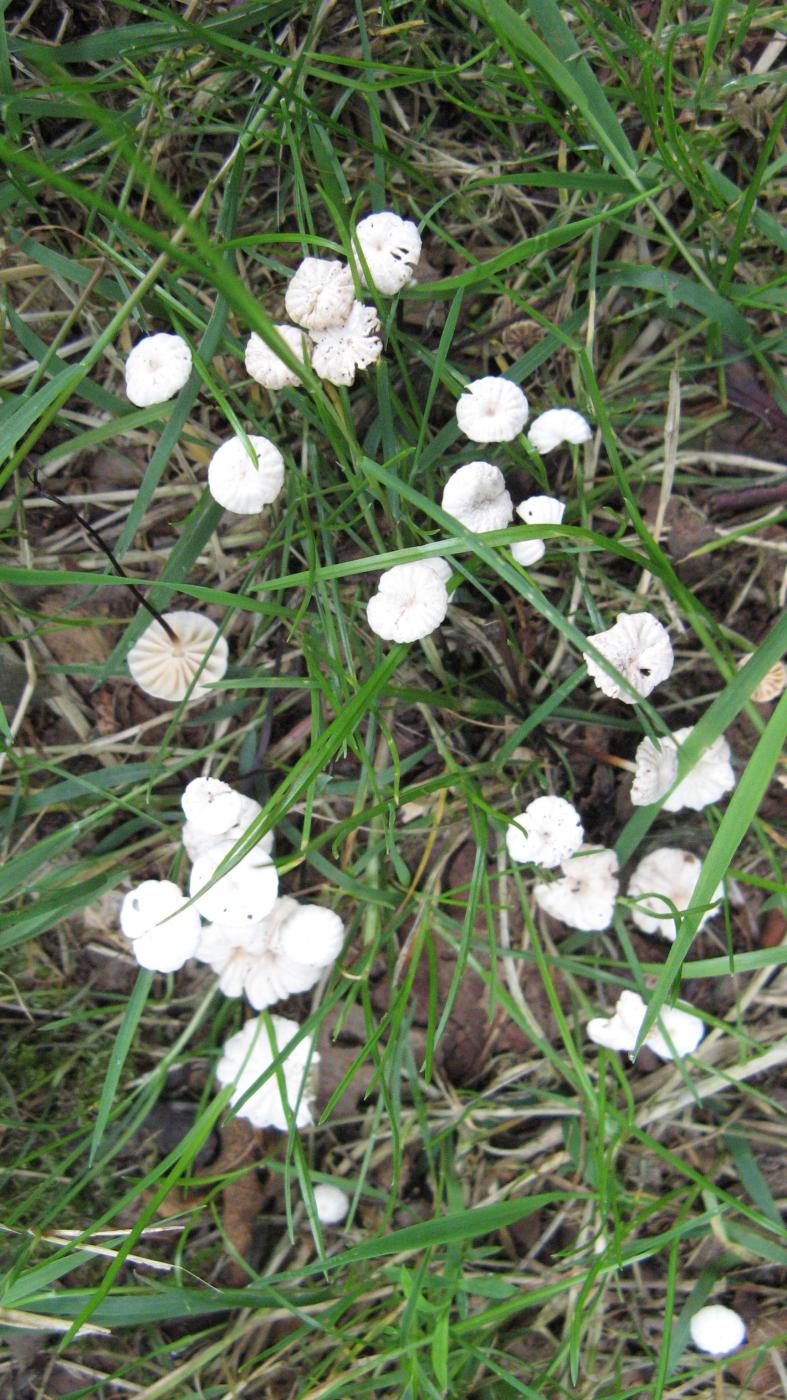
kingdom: Fungi
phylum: Basidiomycota
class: Agaricomycetes
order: Agaricales
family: Marasmiaceae
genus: Marasmius
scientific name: Marasmius rotula
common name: hjul-bruskhat
